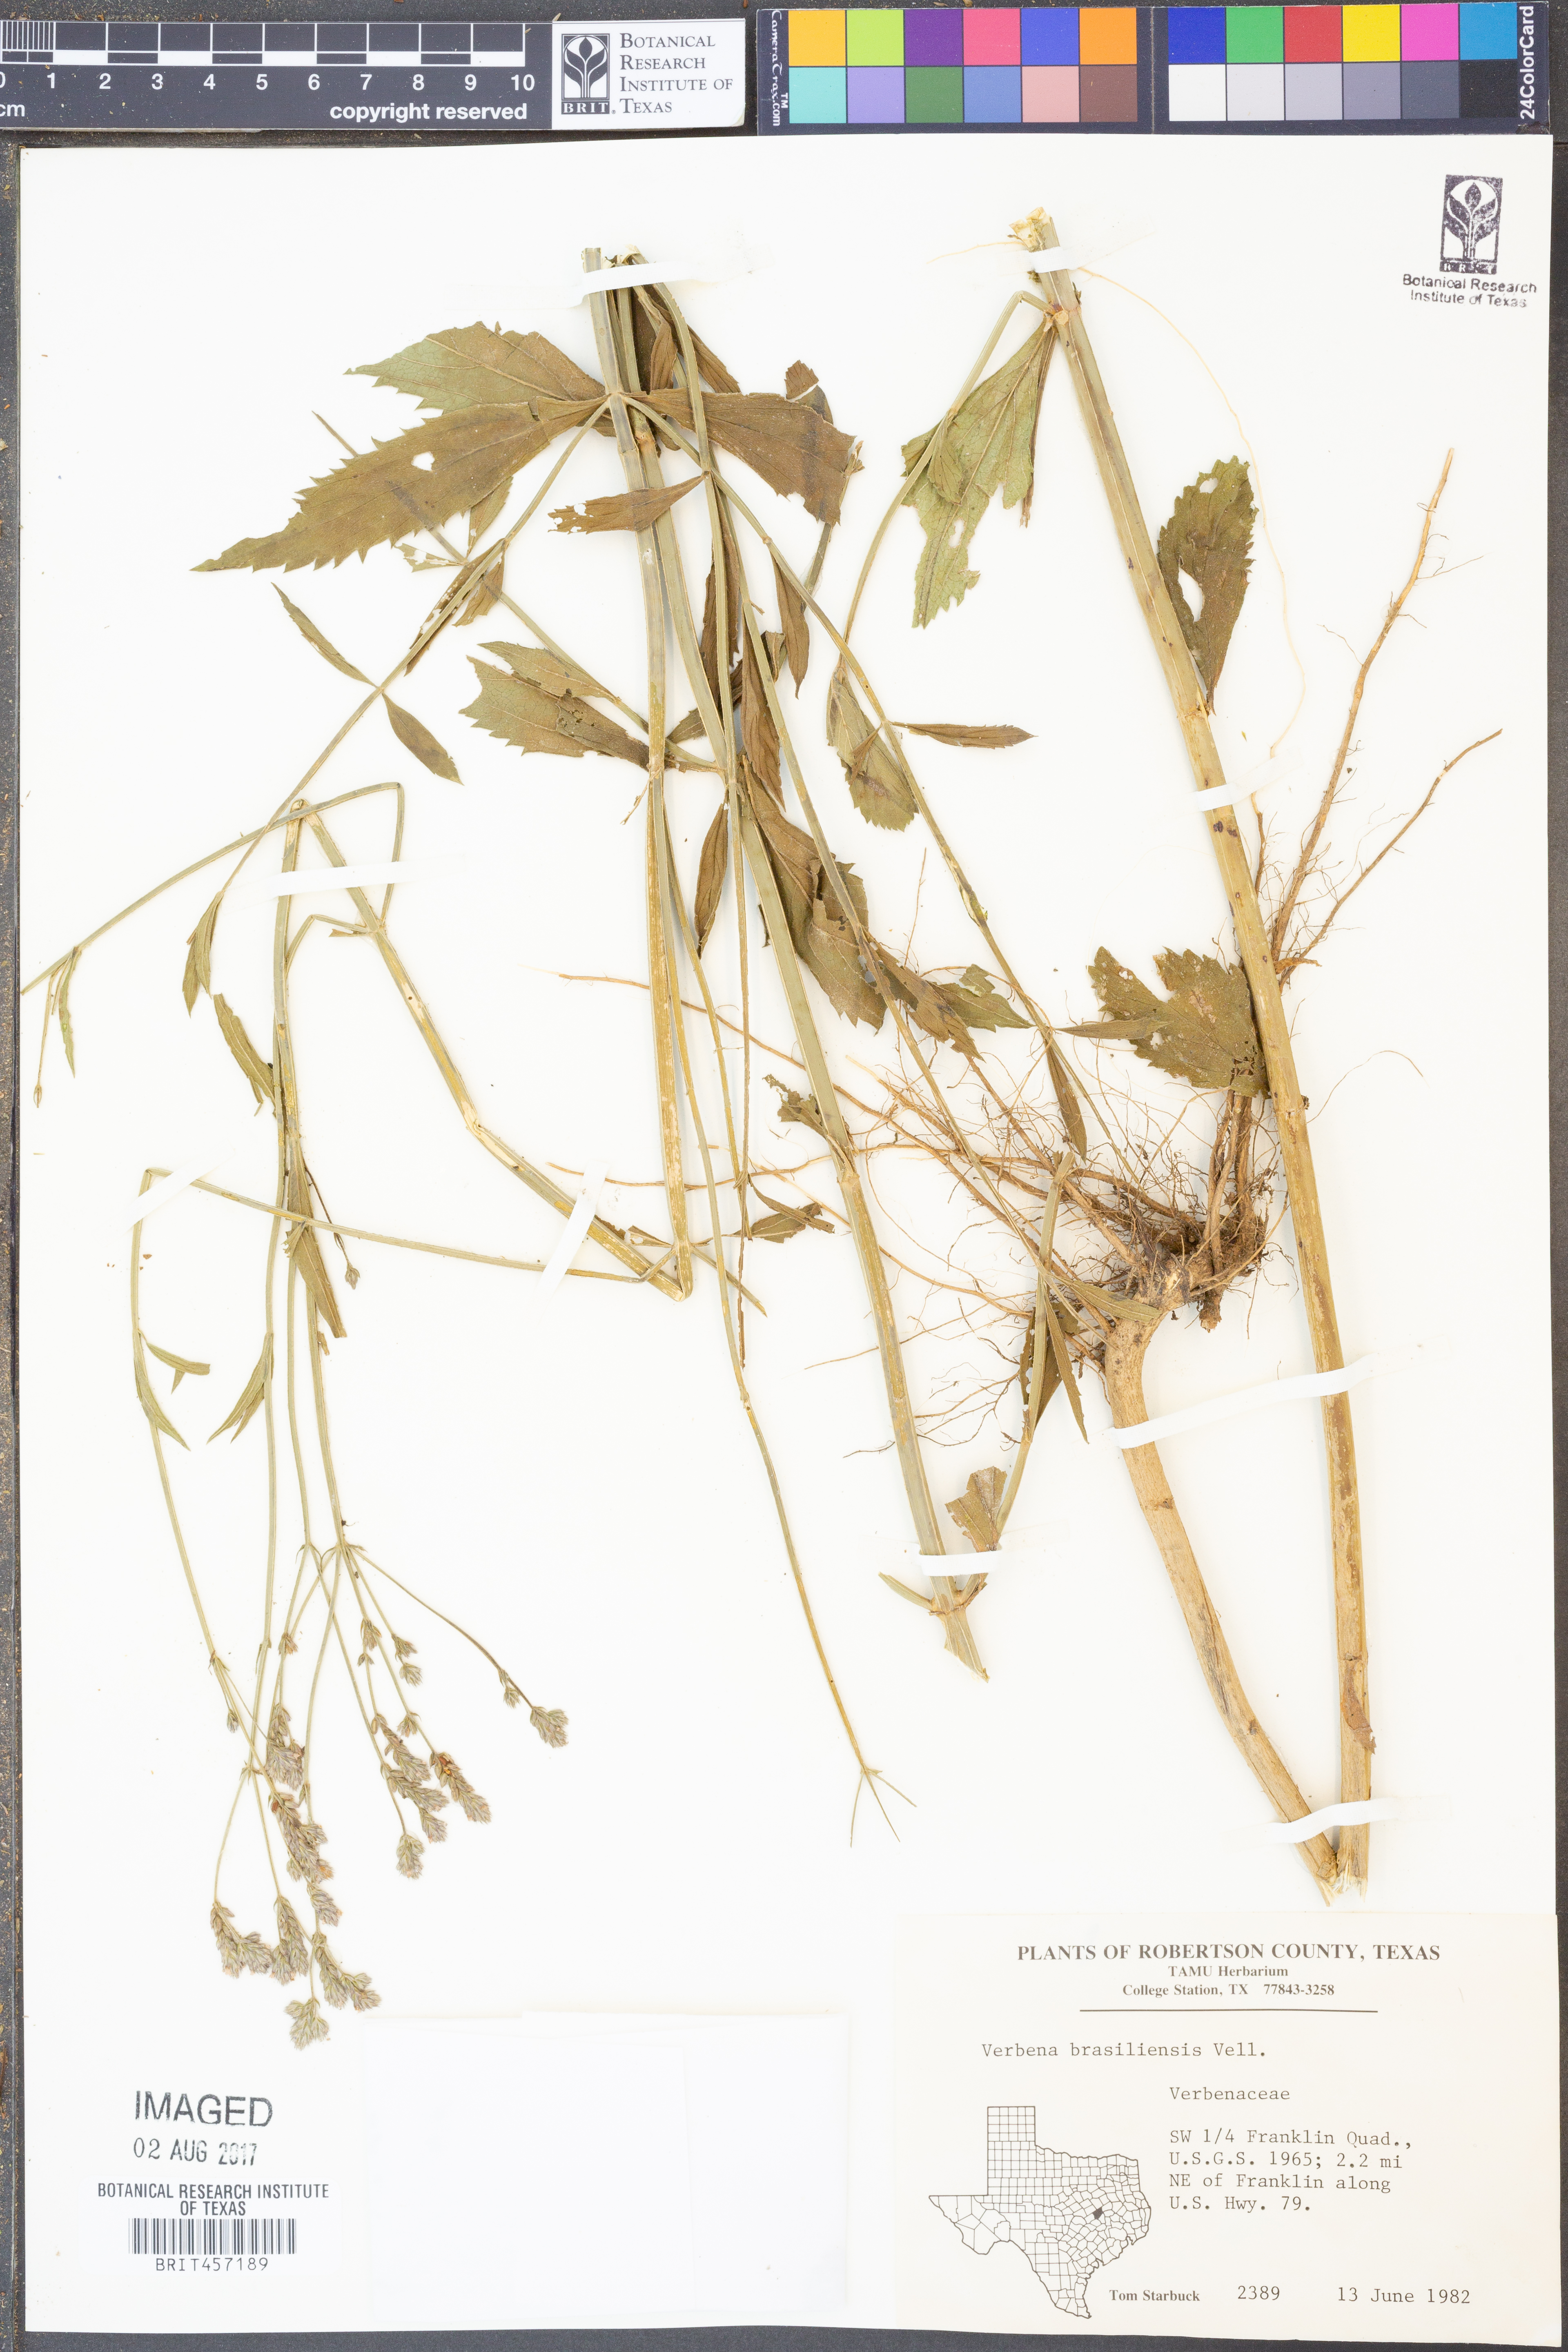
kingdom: Plantae
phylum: Tracheophyta
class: Magnoliopsida
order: Lamiales
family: Verbenaceae
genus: Verbena
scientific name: Verbena brasiliensis
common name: Brazilian vervain
